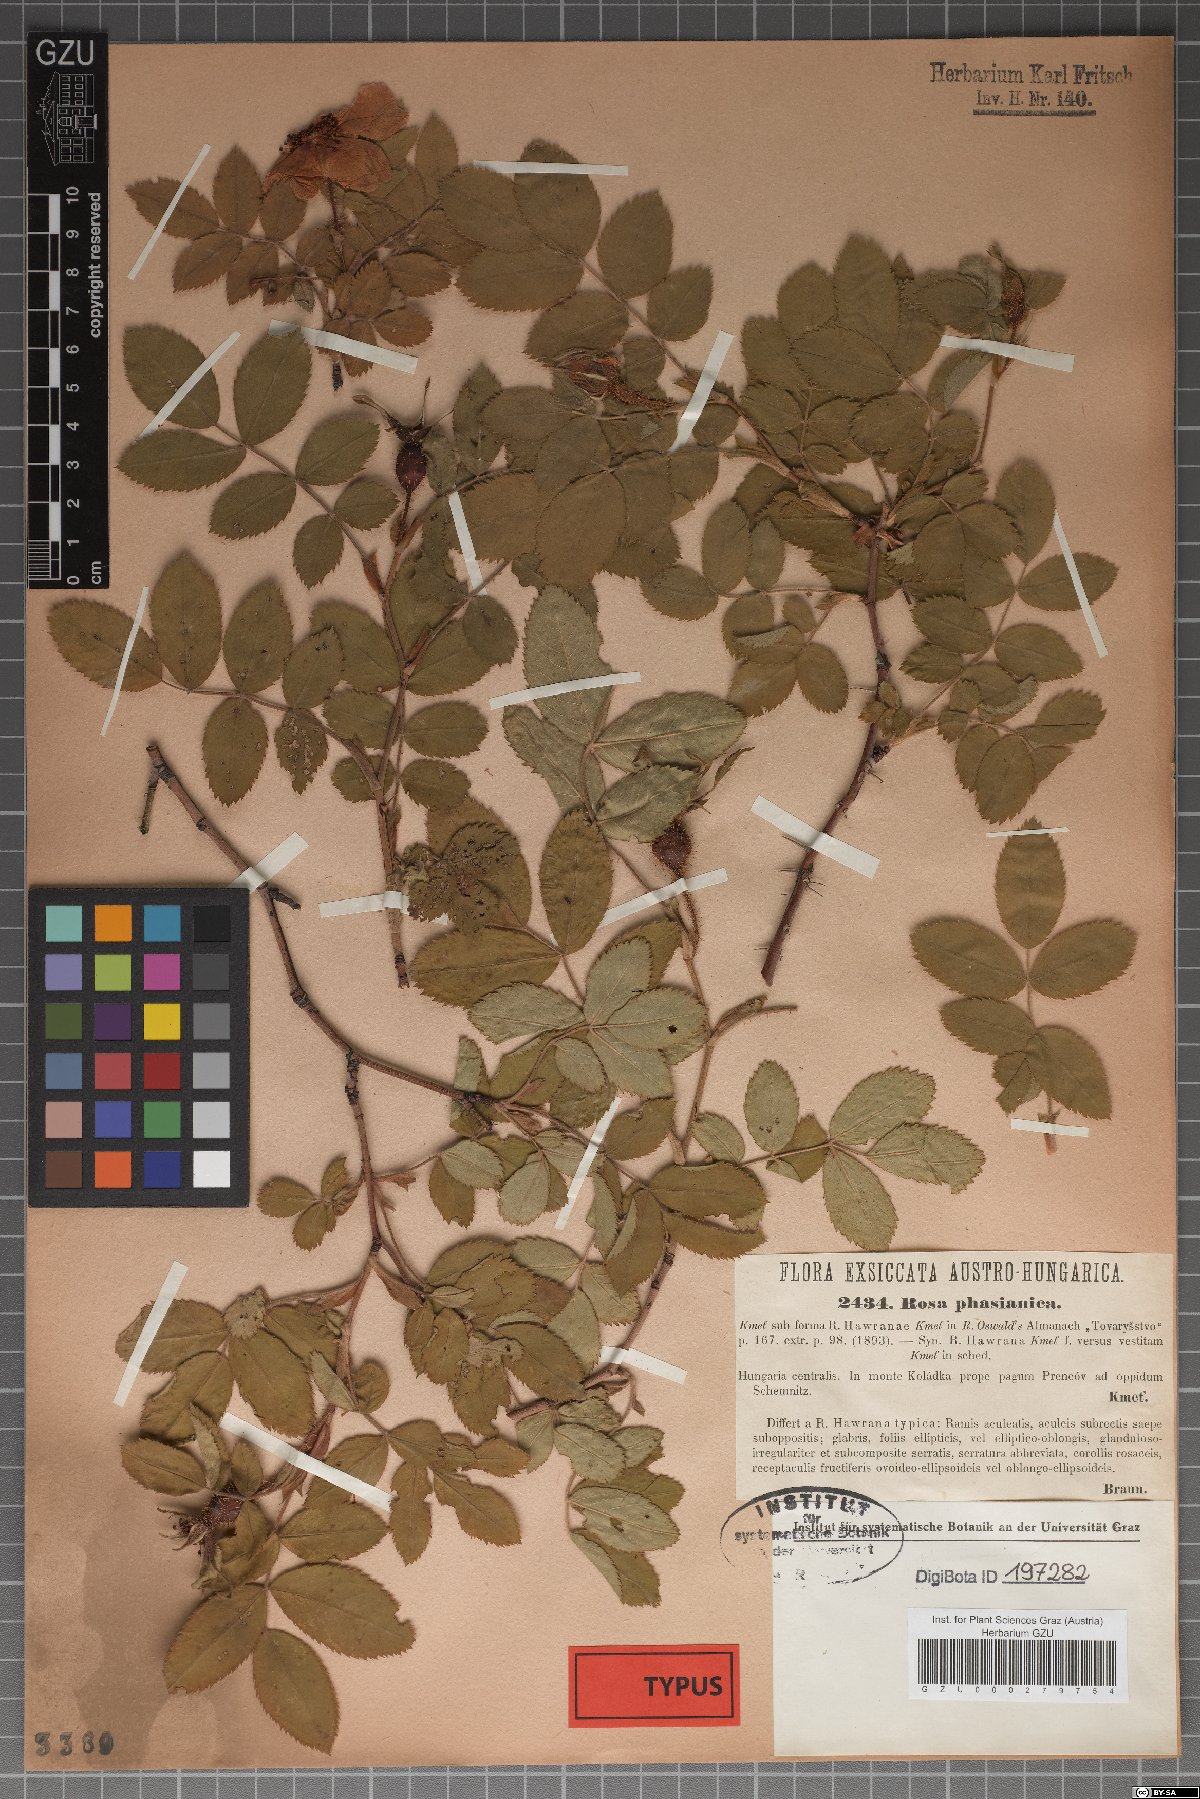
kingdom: Plantae
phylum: Tracheophyta
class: Magnoliopsida
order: Rosales
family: Rosaceae
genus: Rosa
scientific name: Rosa pseudoscabriuscula
